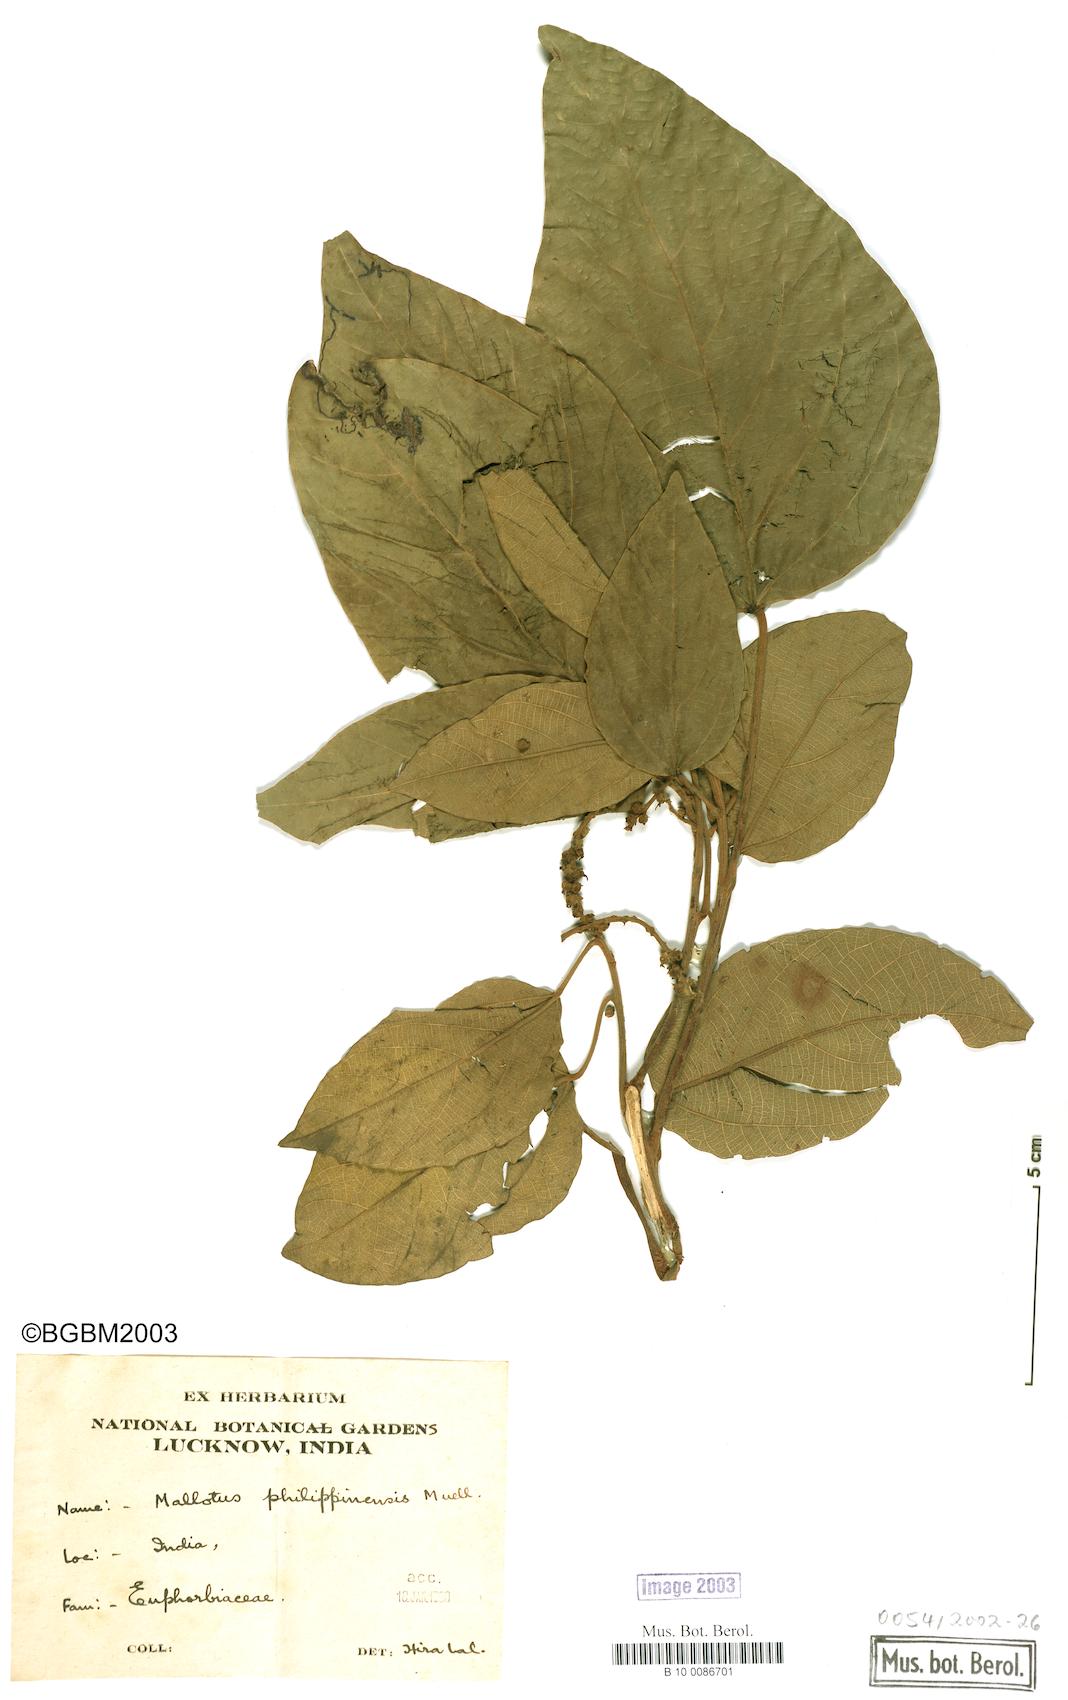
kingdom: Plantae
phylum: Tracheophyta
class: Magnoliopsida
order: Malpighiales
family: Euphorbiaceae
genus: Mallotus
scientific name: Mallotus philippensis
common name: Kamala tree
